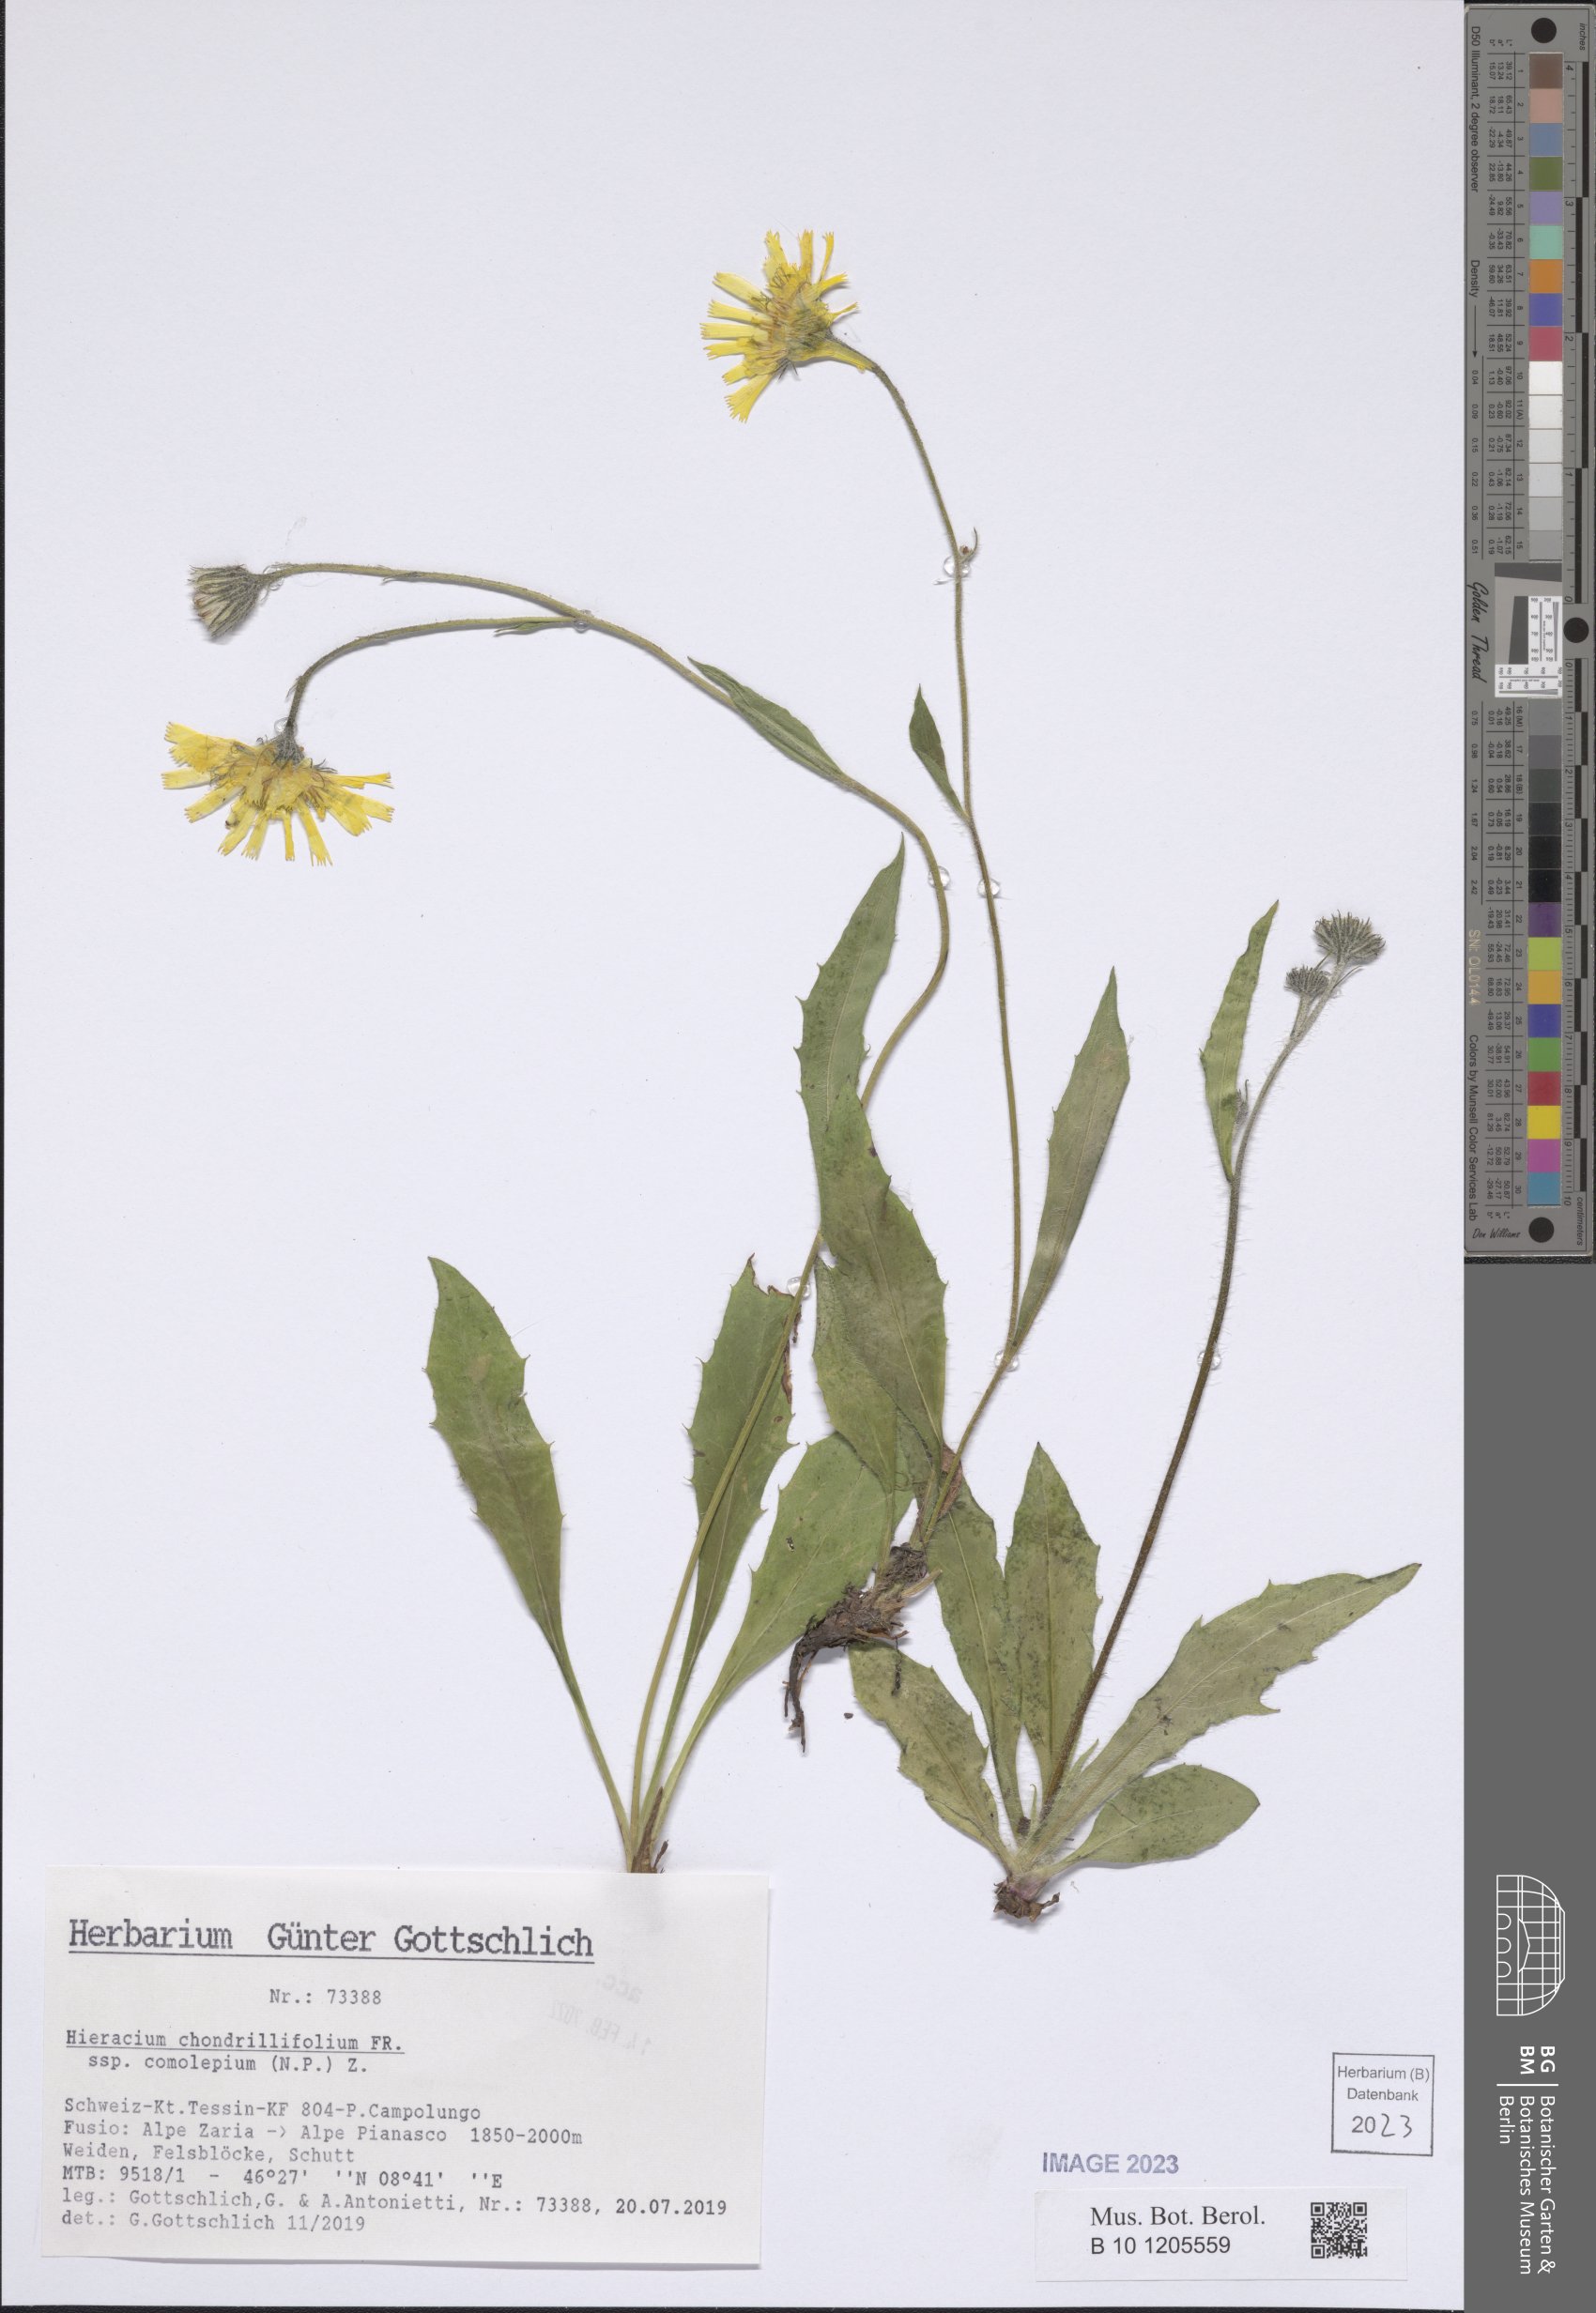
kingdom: Plantae
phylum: Tracheophyta
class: Magnoliopsida
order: Asterales
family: Asteraceae
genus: Hieracium
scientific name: Hieracium subspeciosum
